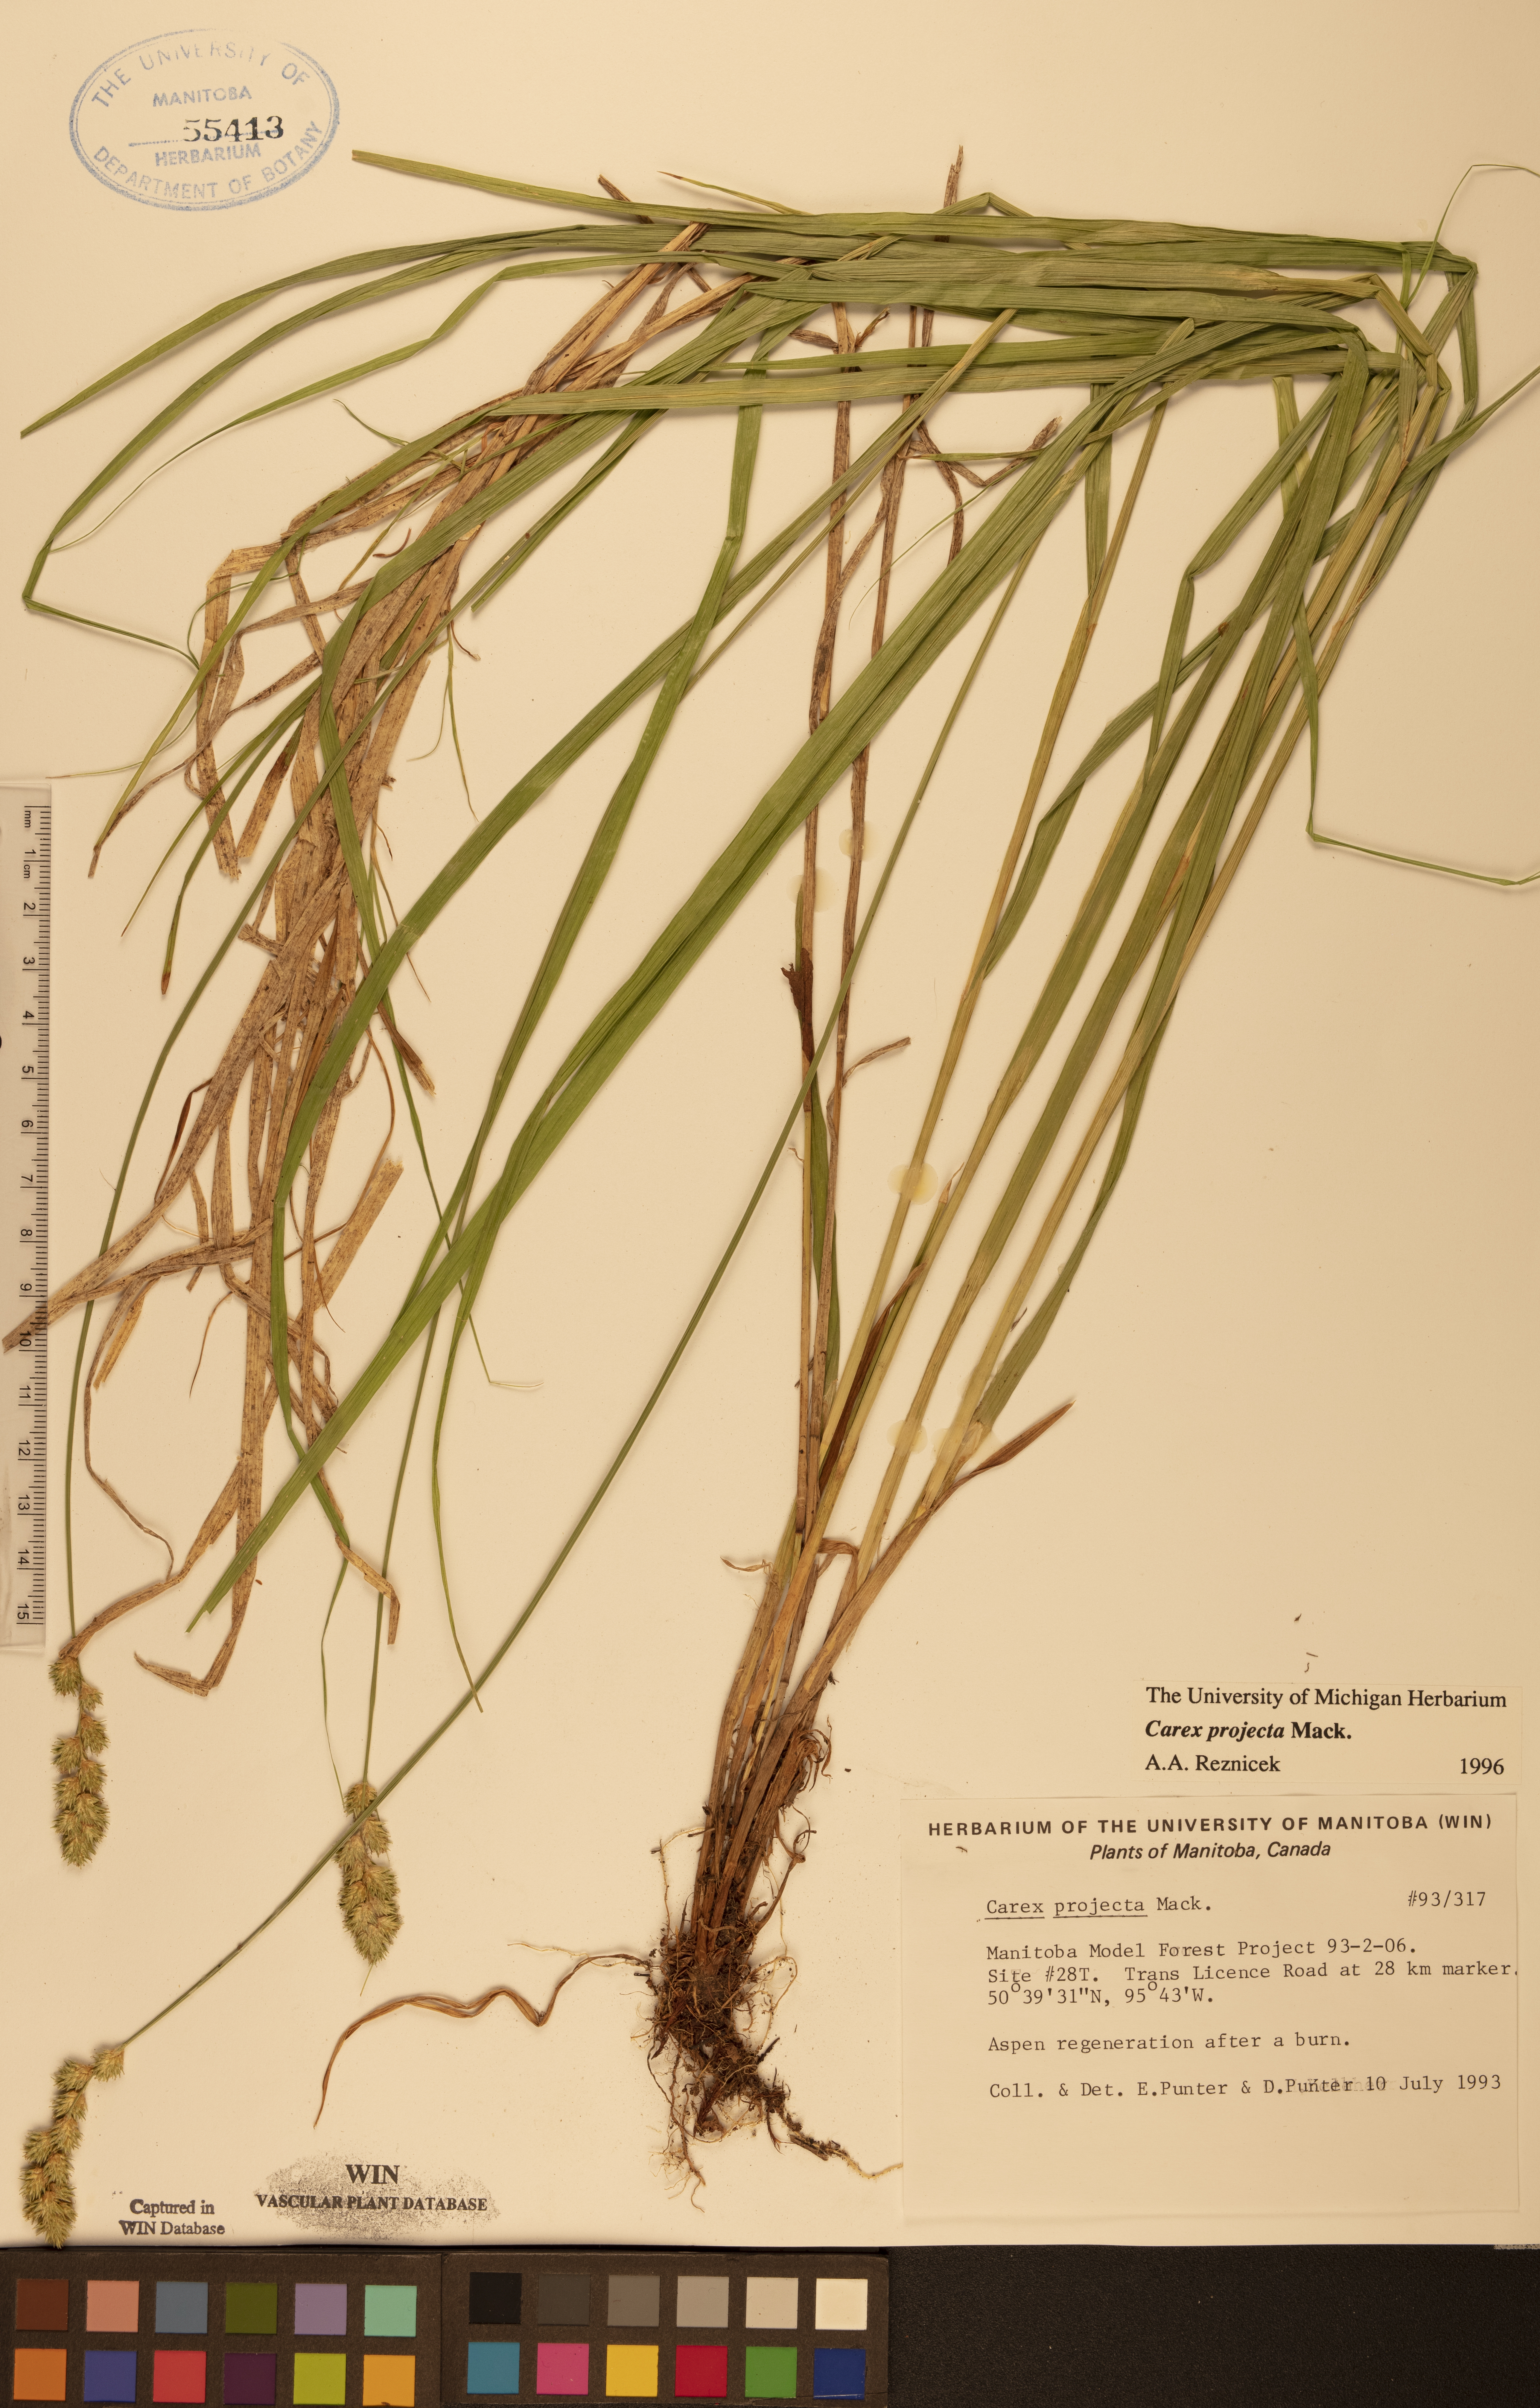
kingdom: Plantae
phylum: Tracheophyta
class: Liliopsida
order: Poales
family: Cyperaceae
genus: Carex
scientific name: Carex projecta
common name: Loose-headed oval sedge
